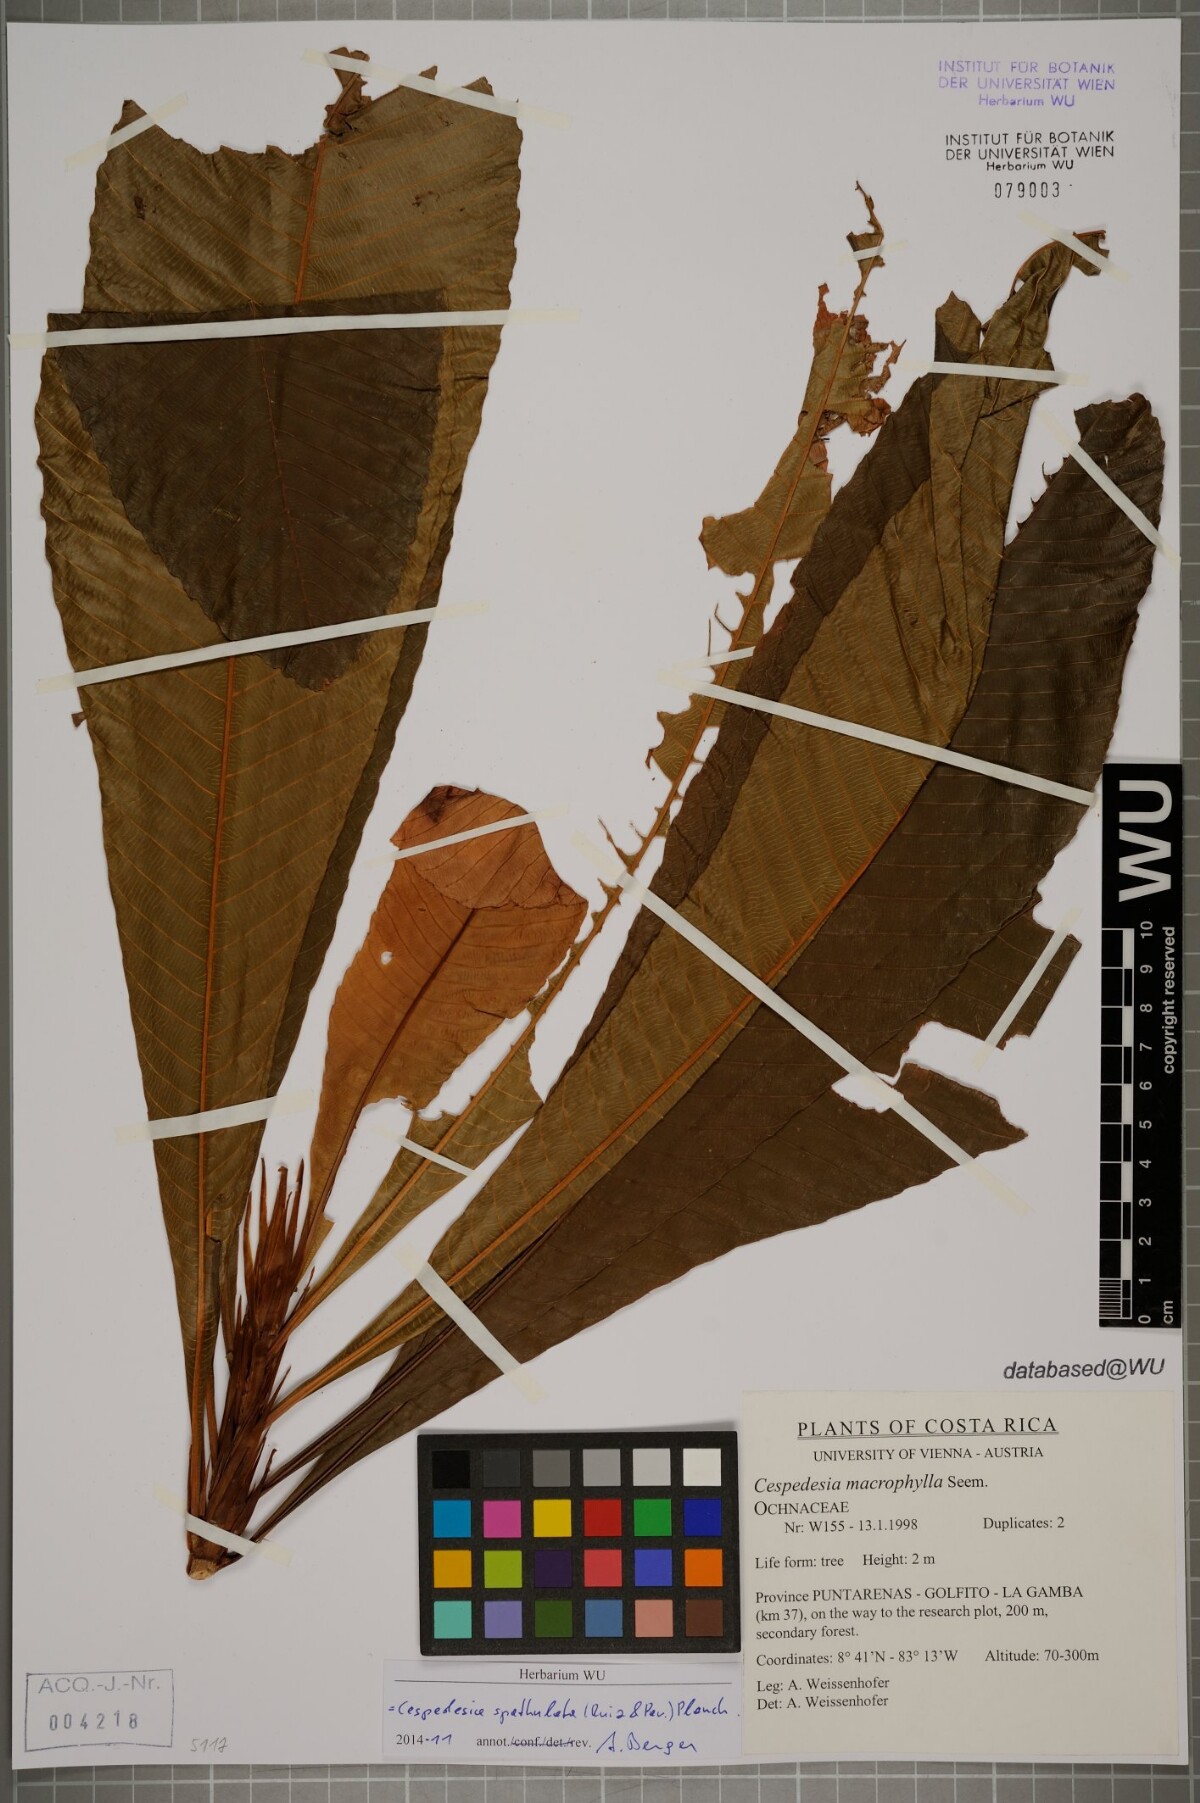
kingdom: Plantae
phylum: Tracheophyta
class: Magnoliopsida
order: Malpighiales
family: Ochnaceae
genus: Cespedesia
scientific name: Cespedesia spathulata
